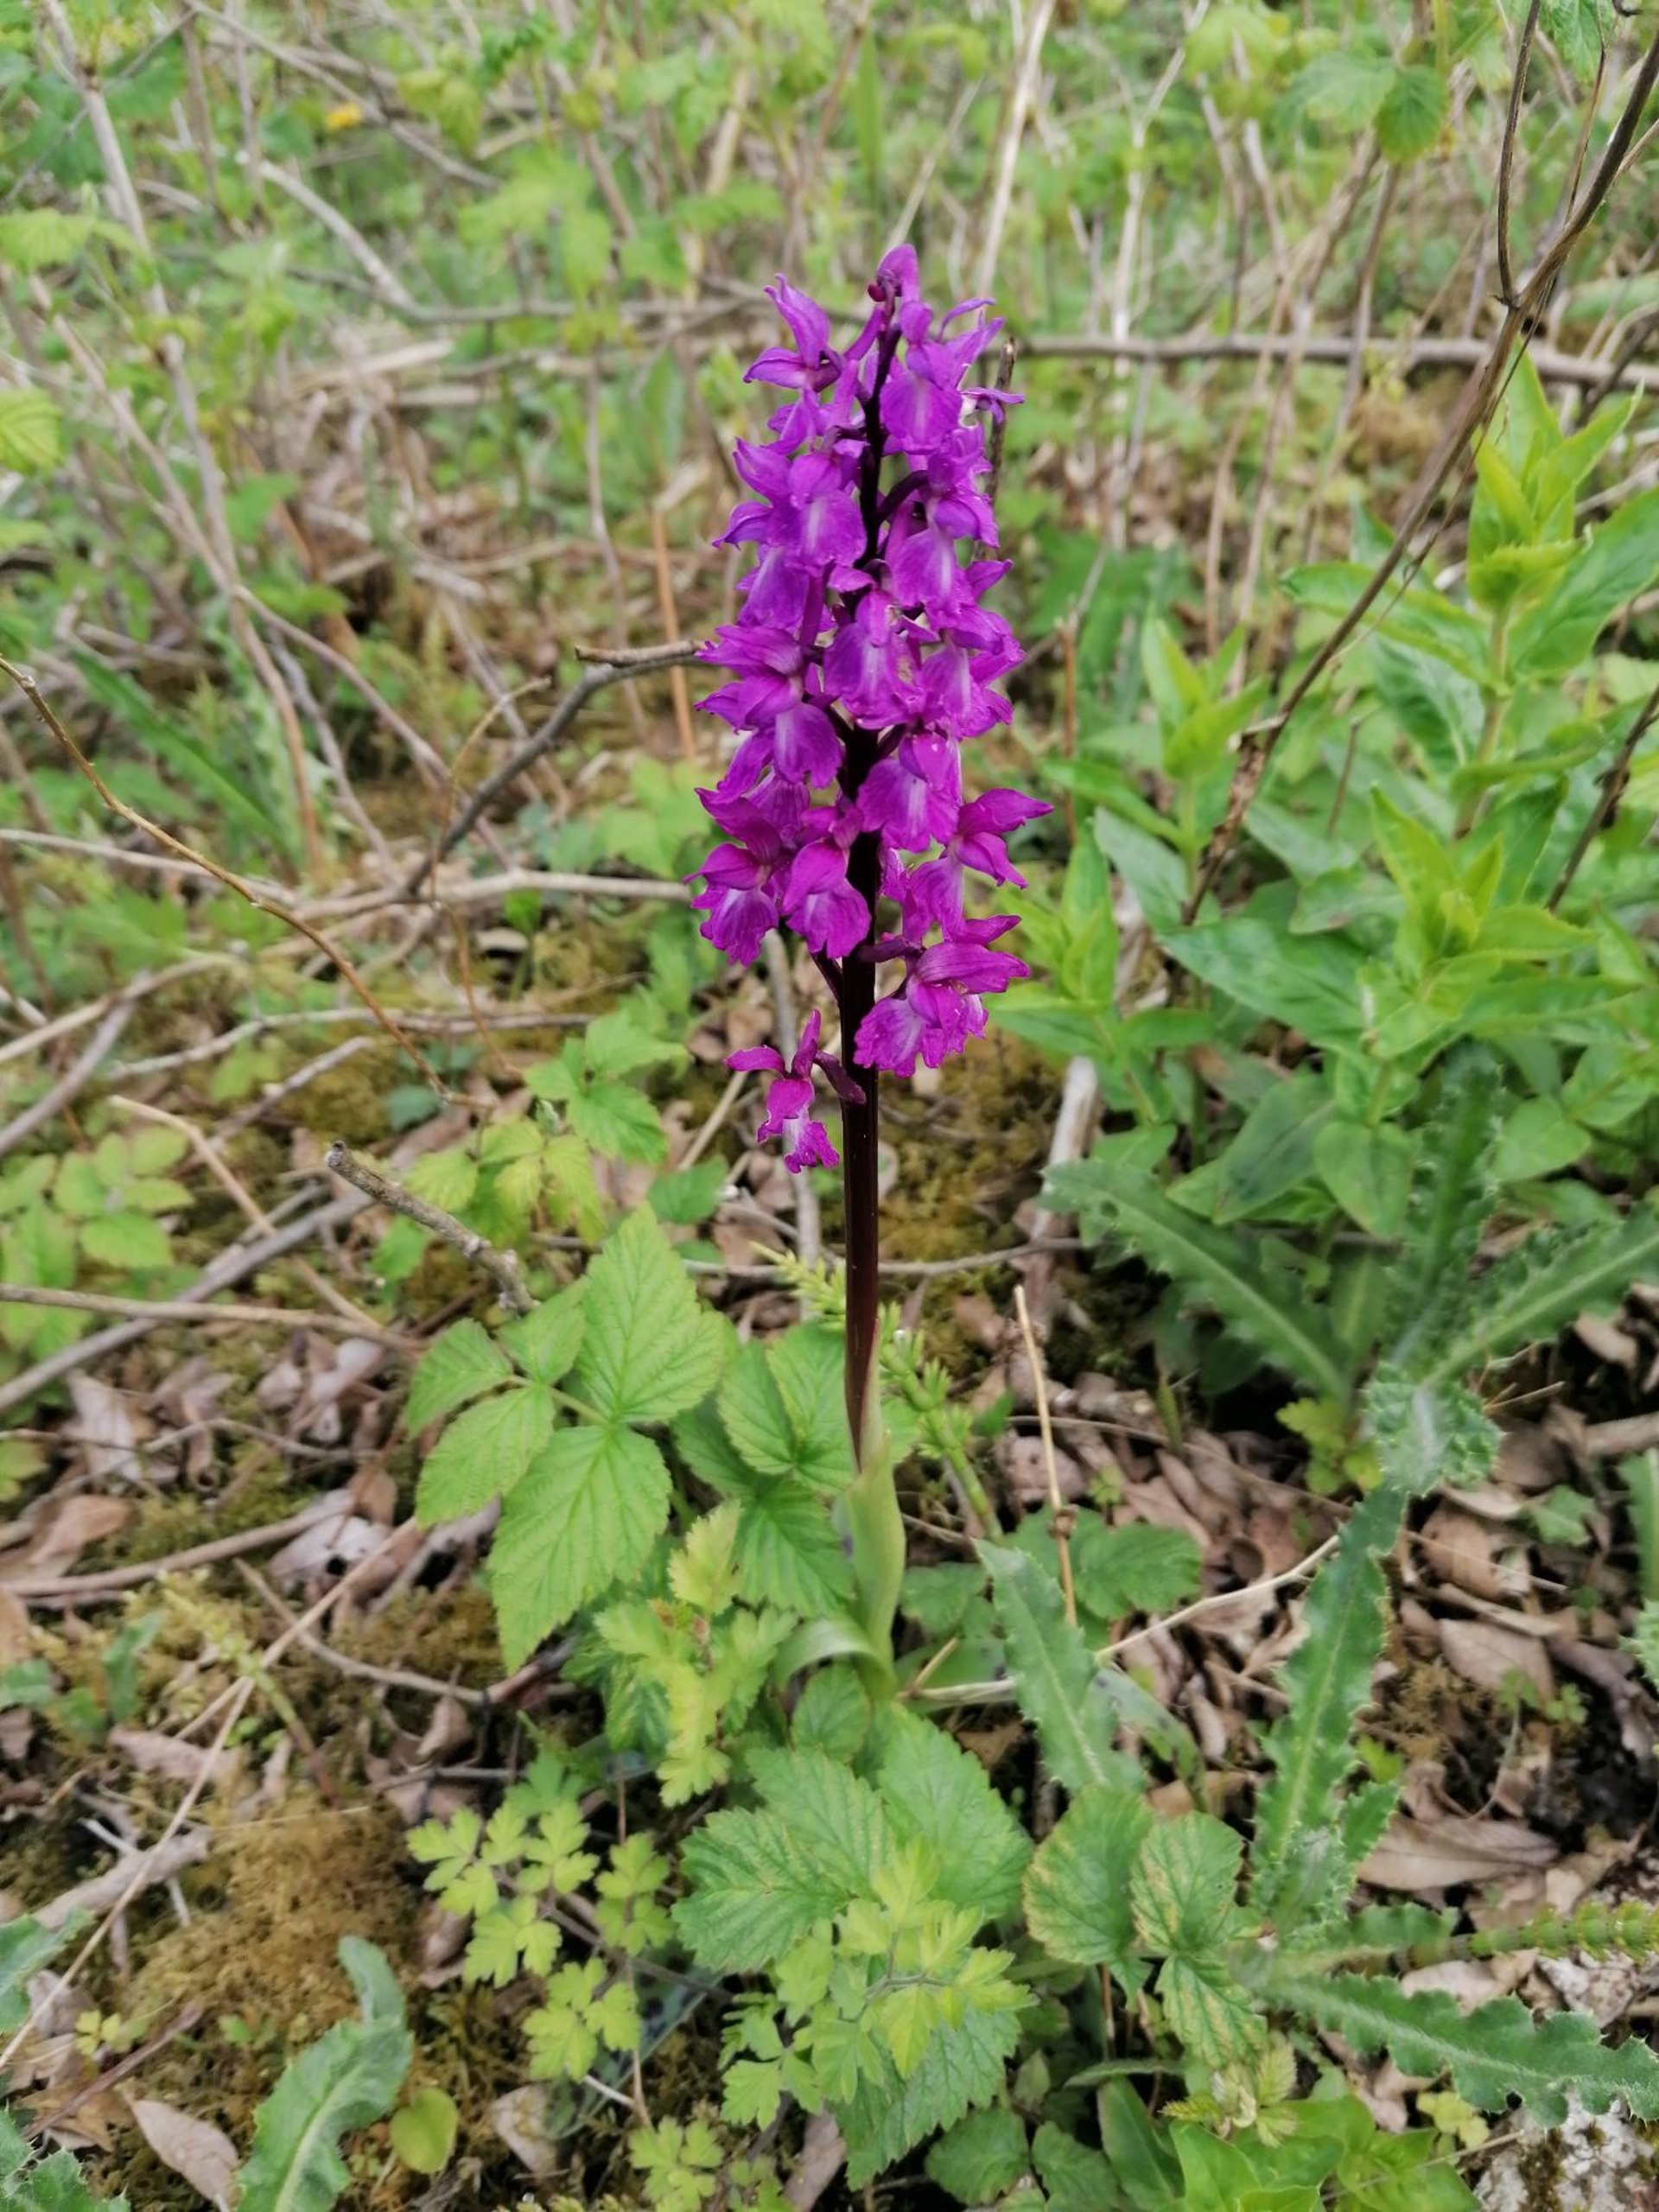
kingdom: Plantae
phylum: Tracheophyta
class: Liliopsida
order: Asparagales
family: Orchidaceae
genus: Orchis
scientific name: Orchis mascula
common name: Tyndakset gøgeurt
